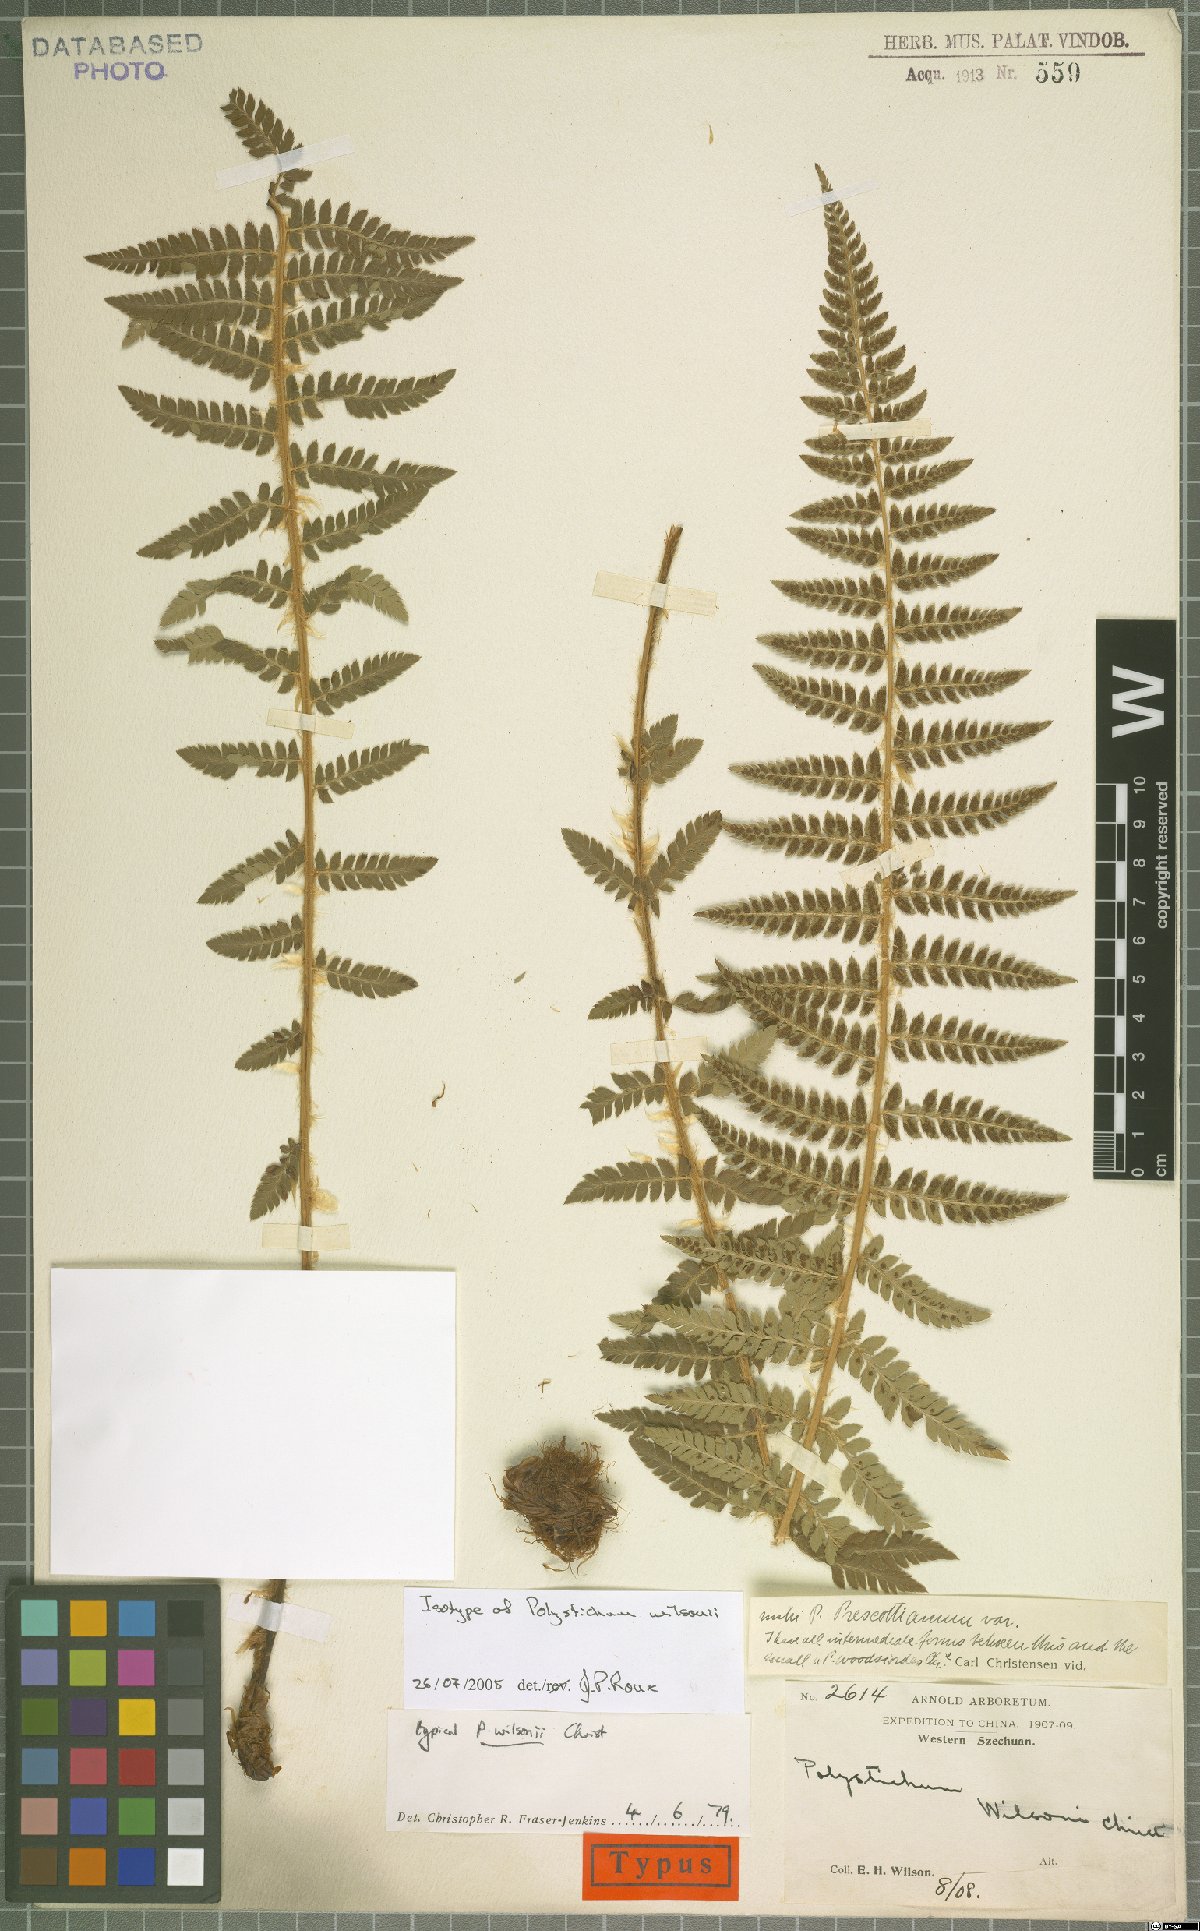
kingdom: Plantae
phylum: Tracheophyta
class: Polypodiopsida
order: Polypodiales
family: Dryopteridaceae
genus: Polystichum
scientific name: Polystichum sinense
